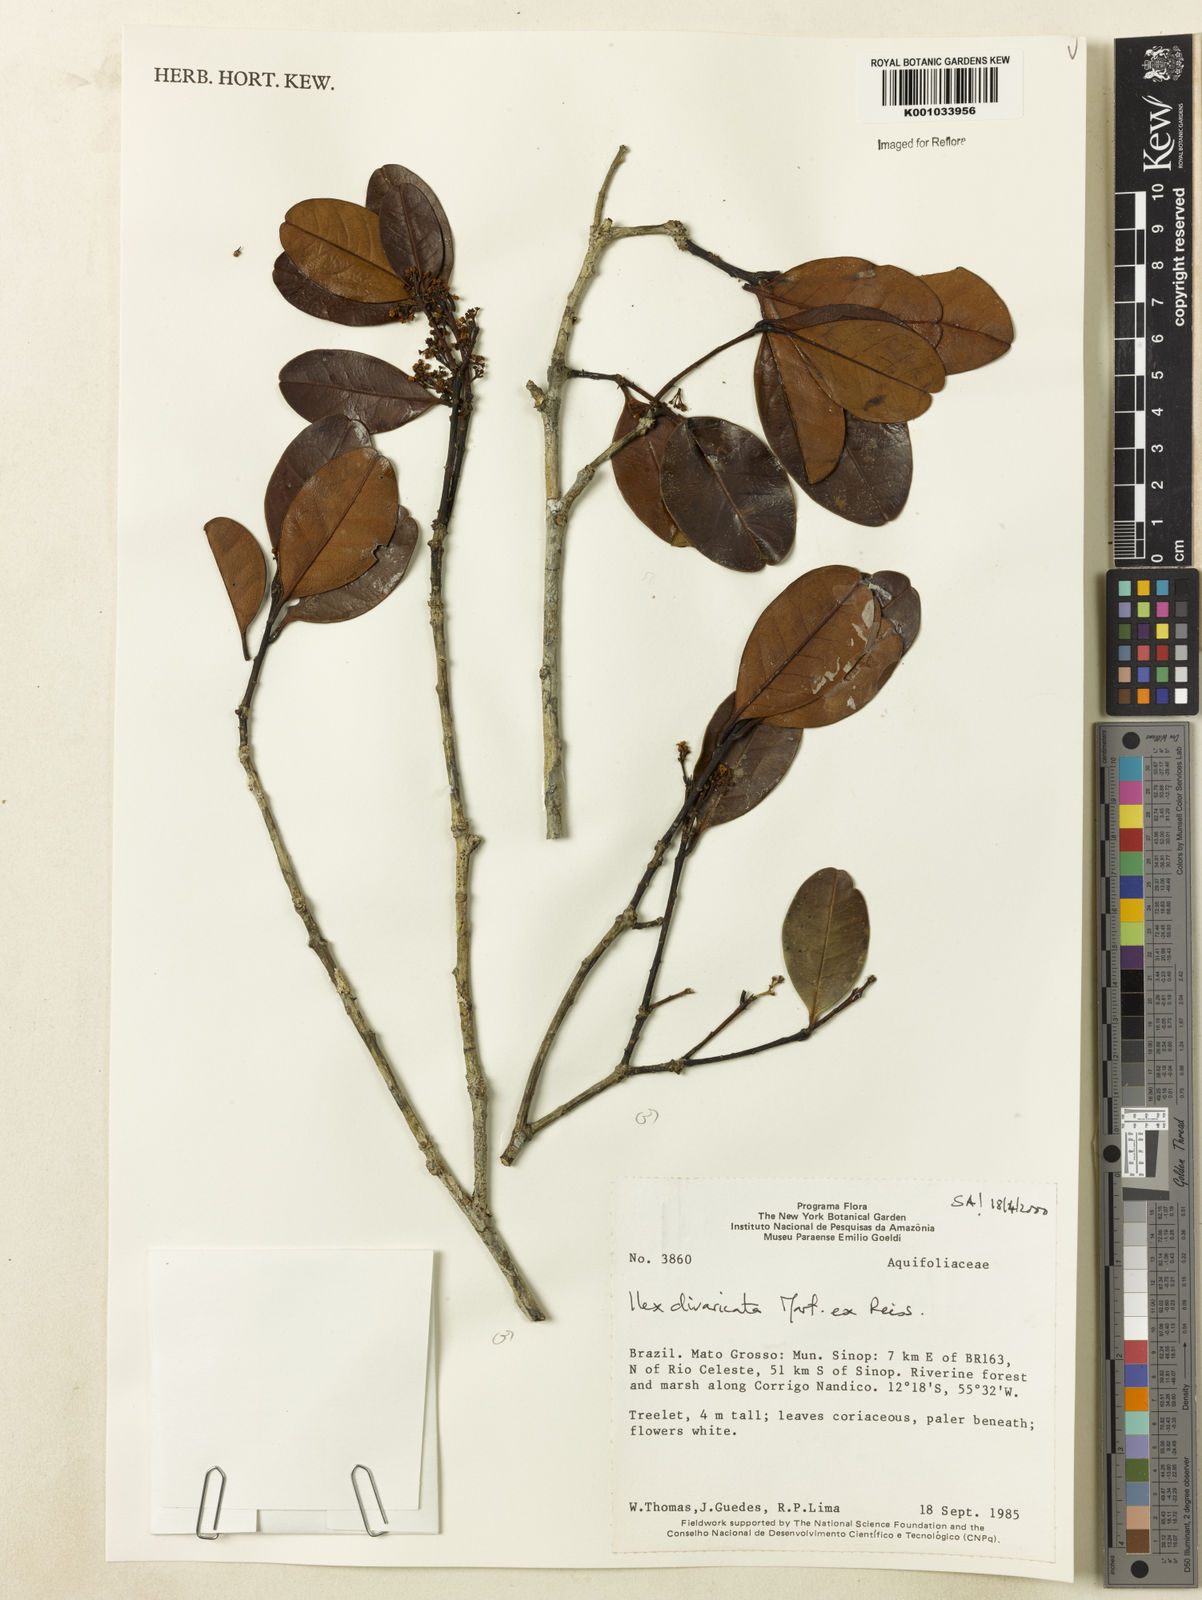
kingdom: Plantae
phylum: Tracheophyta
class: Magnoliopsida
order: Aquifoliales
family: Aquifoliaceae
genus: Ilex
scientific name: Ilex divaricata
